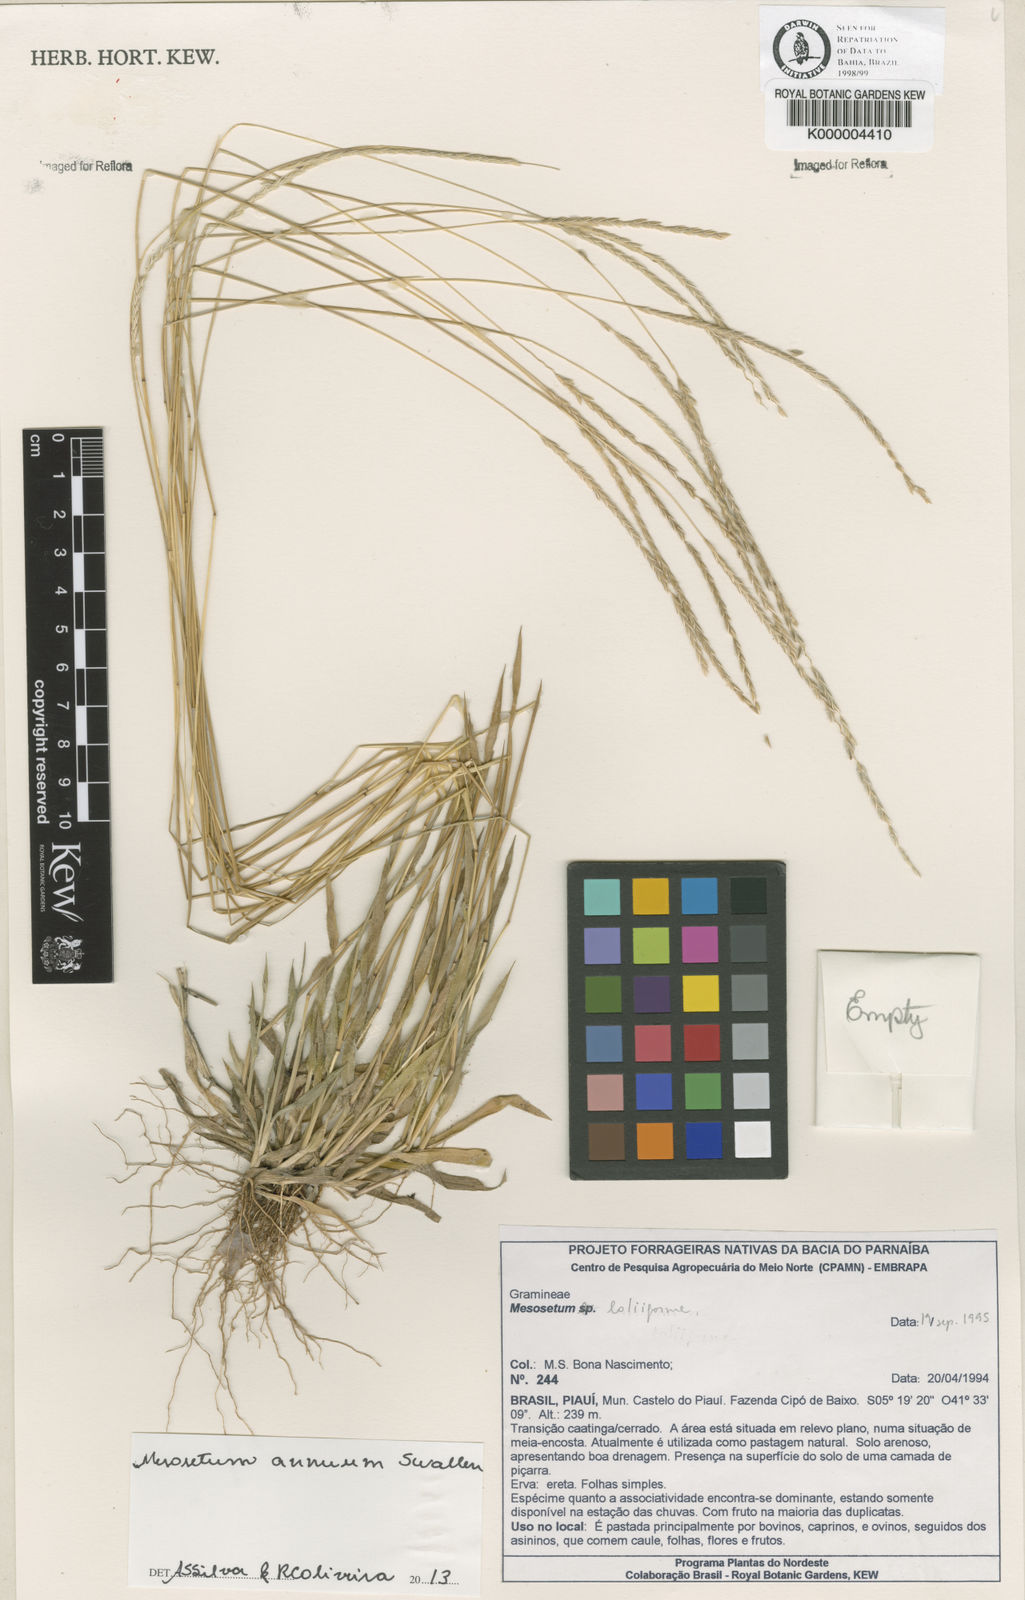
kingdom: Plantae
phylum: Tracheophyta
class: Liliopsida
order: Poales
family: Poaceae
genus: Mesosetum
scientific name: Mesosetum annuum
